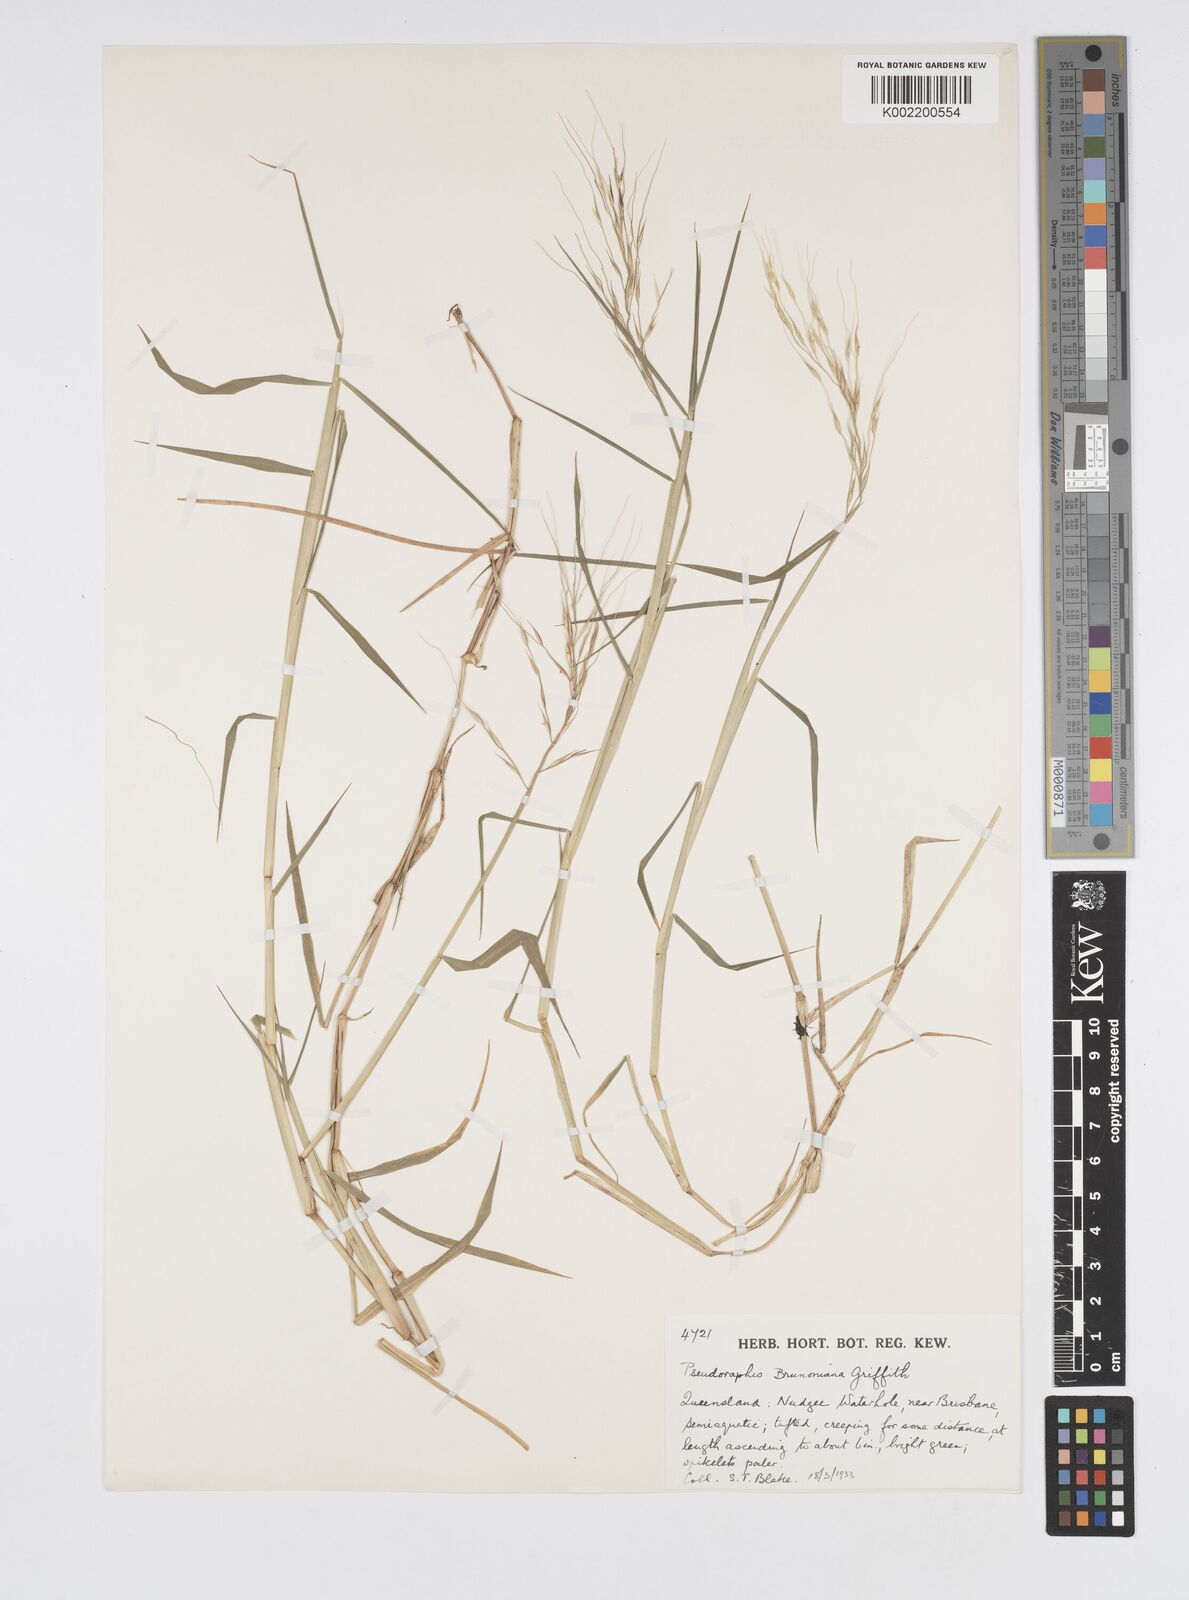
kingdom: Plantae
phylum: Tracheophyta
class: Liliopsida
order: Poales
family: Poaceae
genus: Pseudoraphis
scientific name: Pseudoraphis brunoniana
